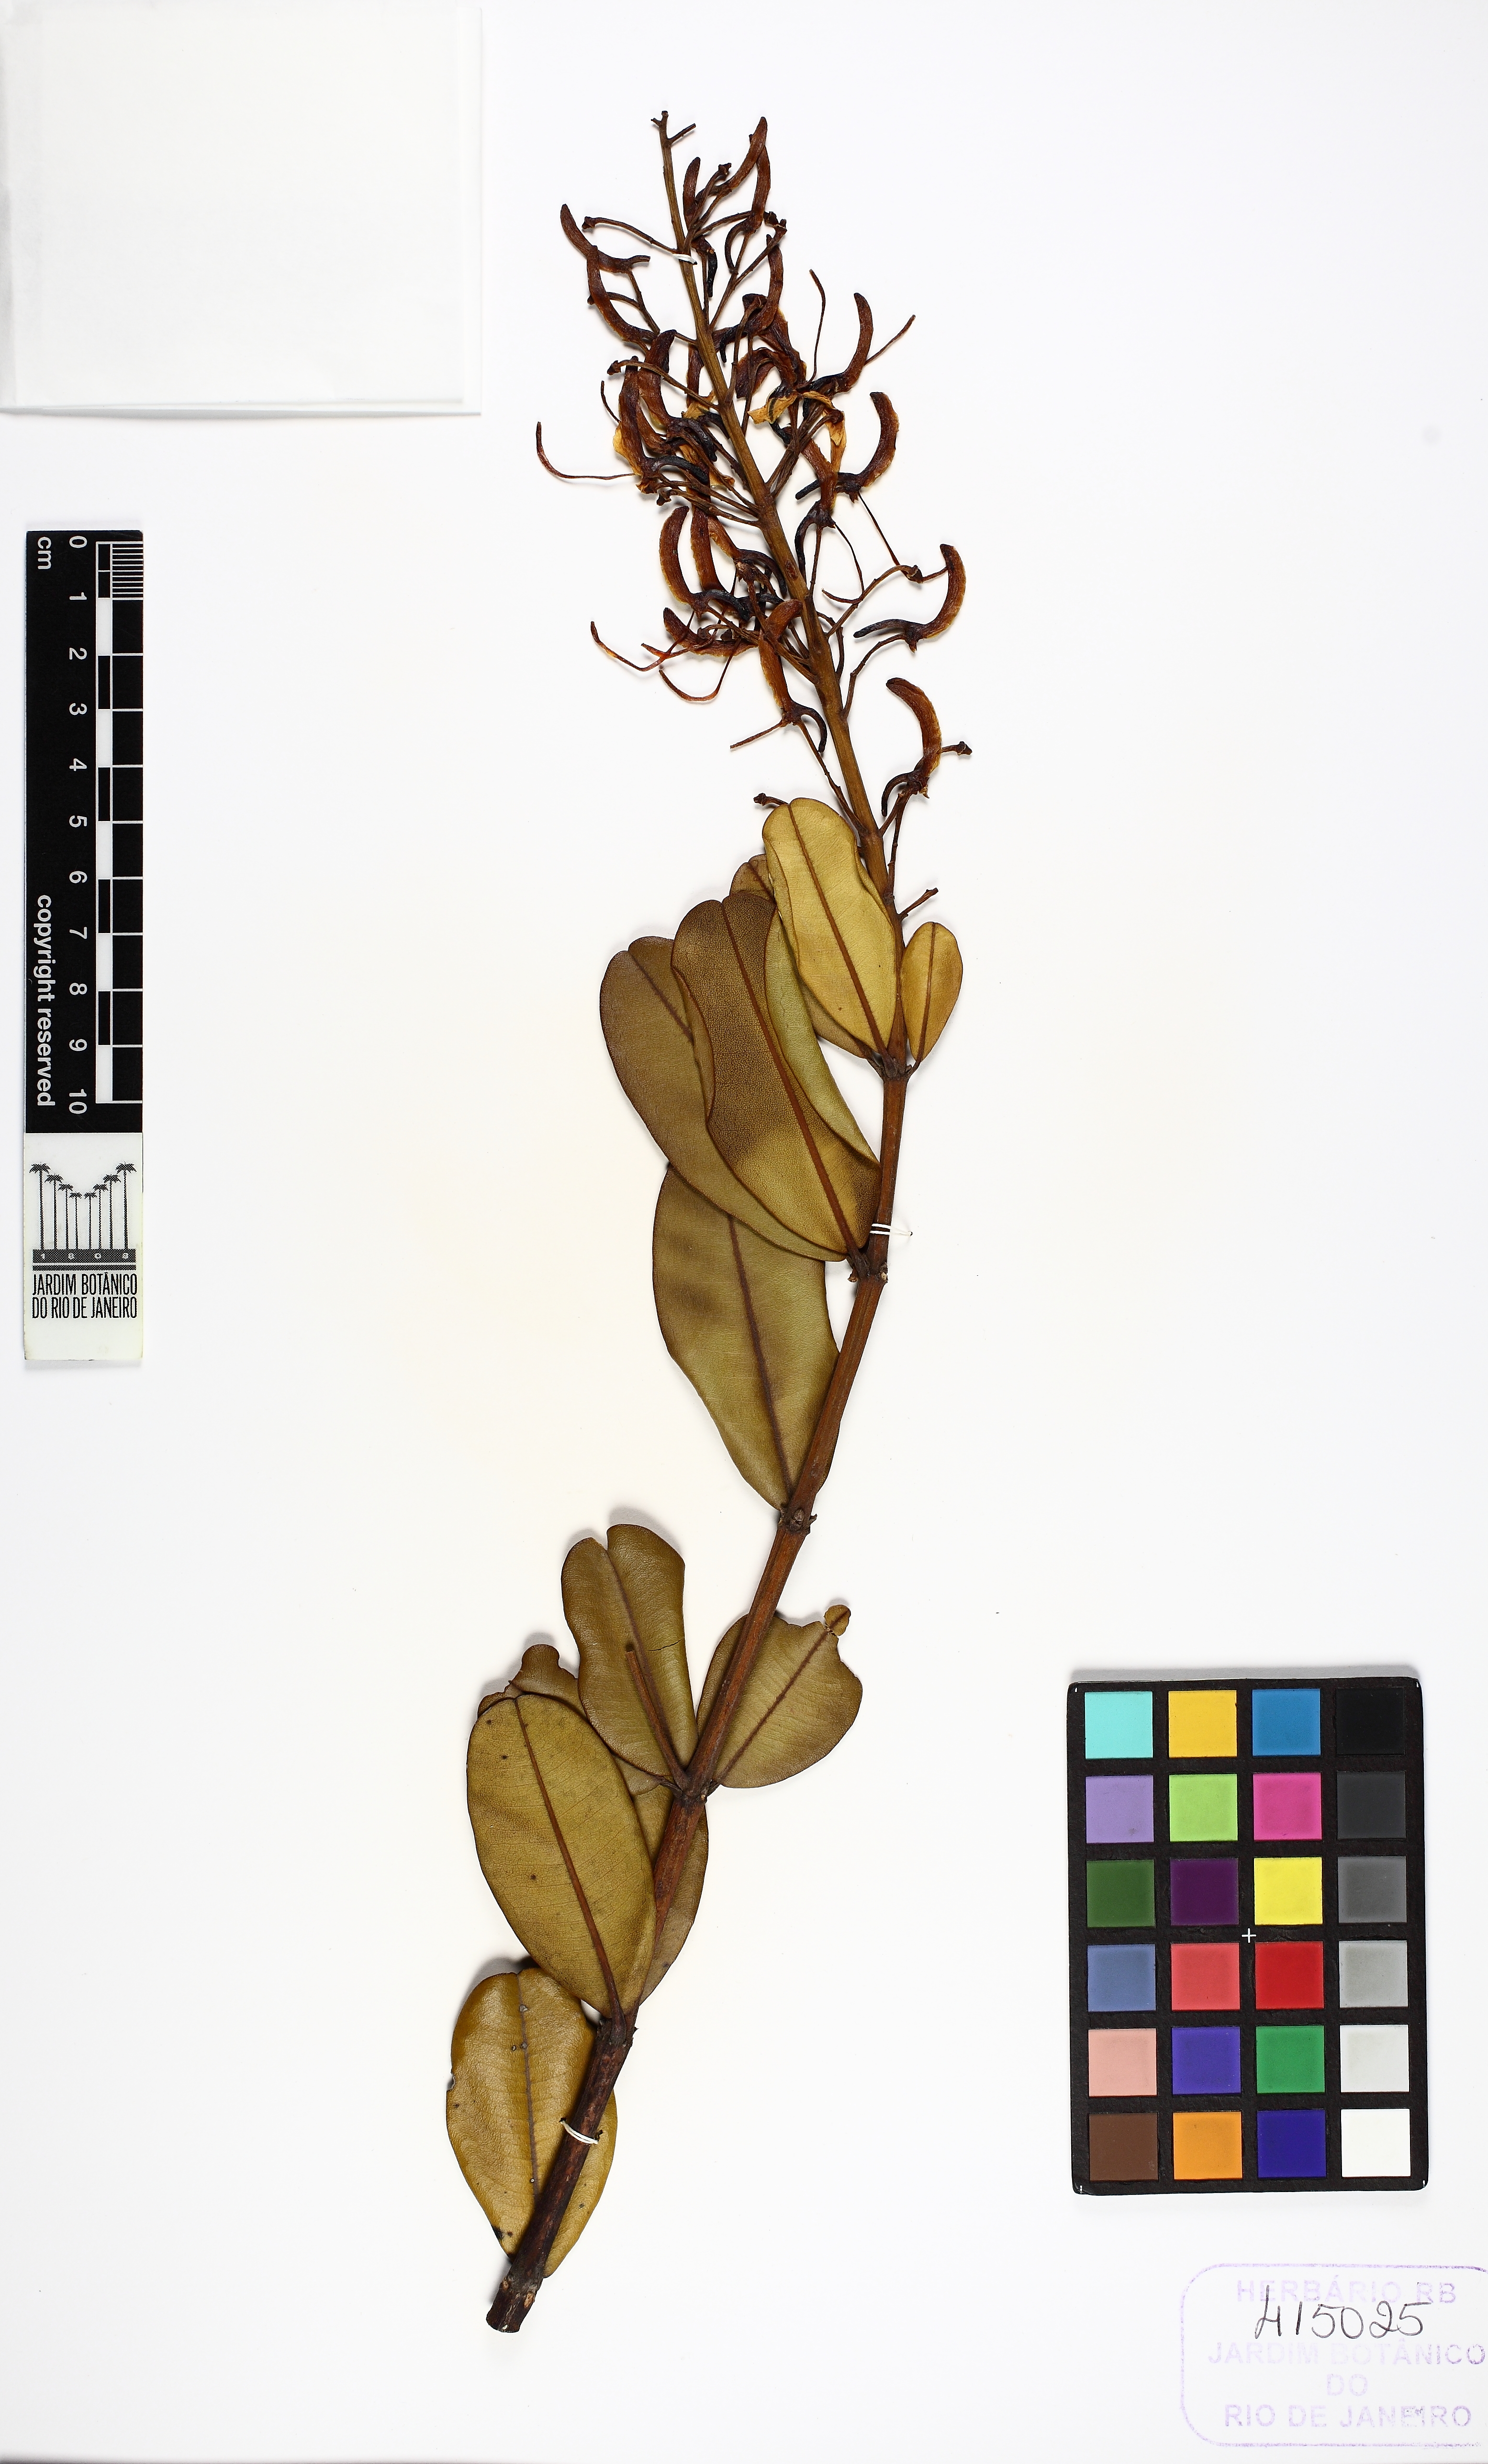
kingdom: Plantae
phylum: Tracheophyta
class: Magnoliopsida
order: Myrtales
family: Vochysiaceae
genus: Vochysia
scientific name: Vochysia thyrsoidea
